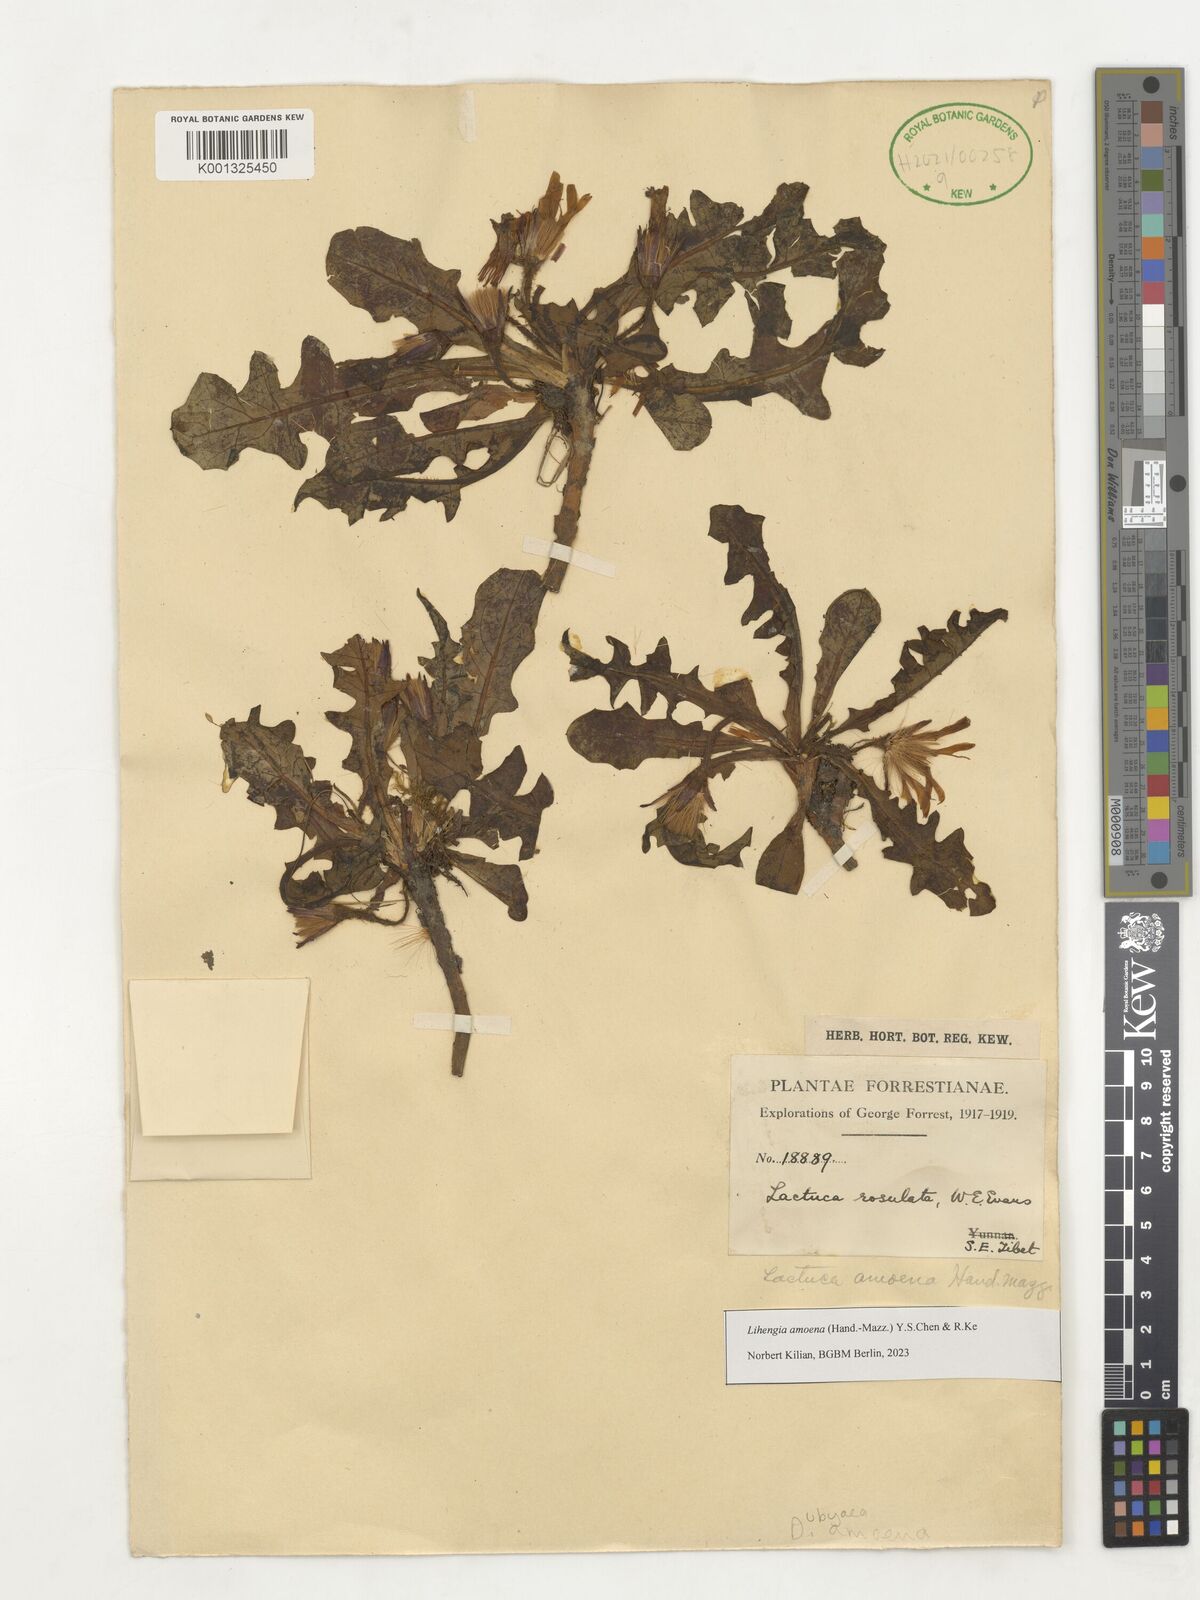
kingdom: Plantae
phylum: Tracheophyta
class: Magnoliopsida
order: Asterales
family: Asteraceae
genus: Lihengia
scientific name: Lihengia amoena
